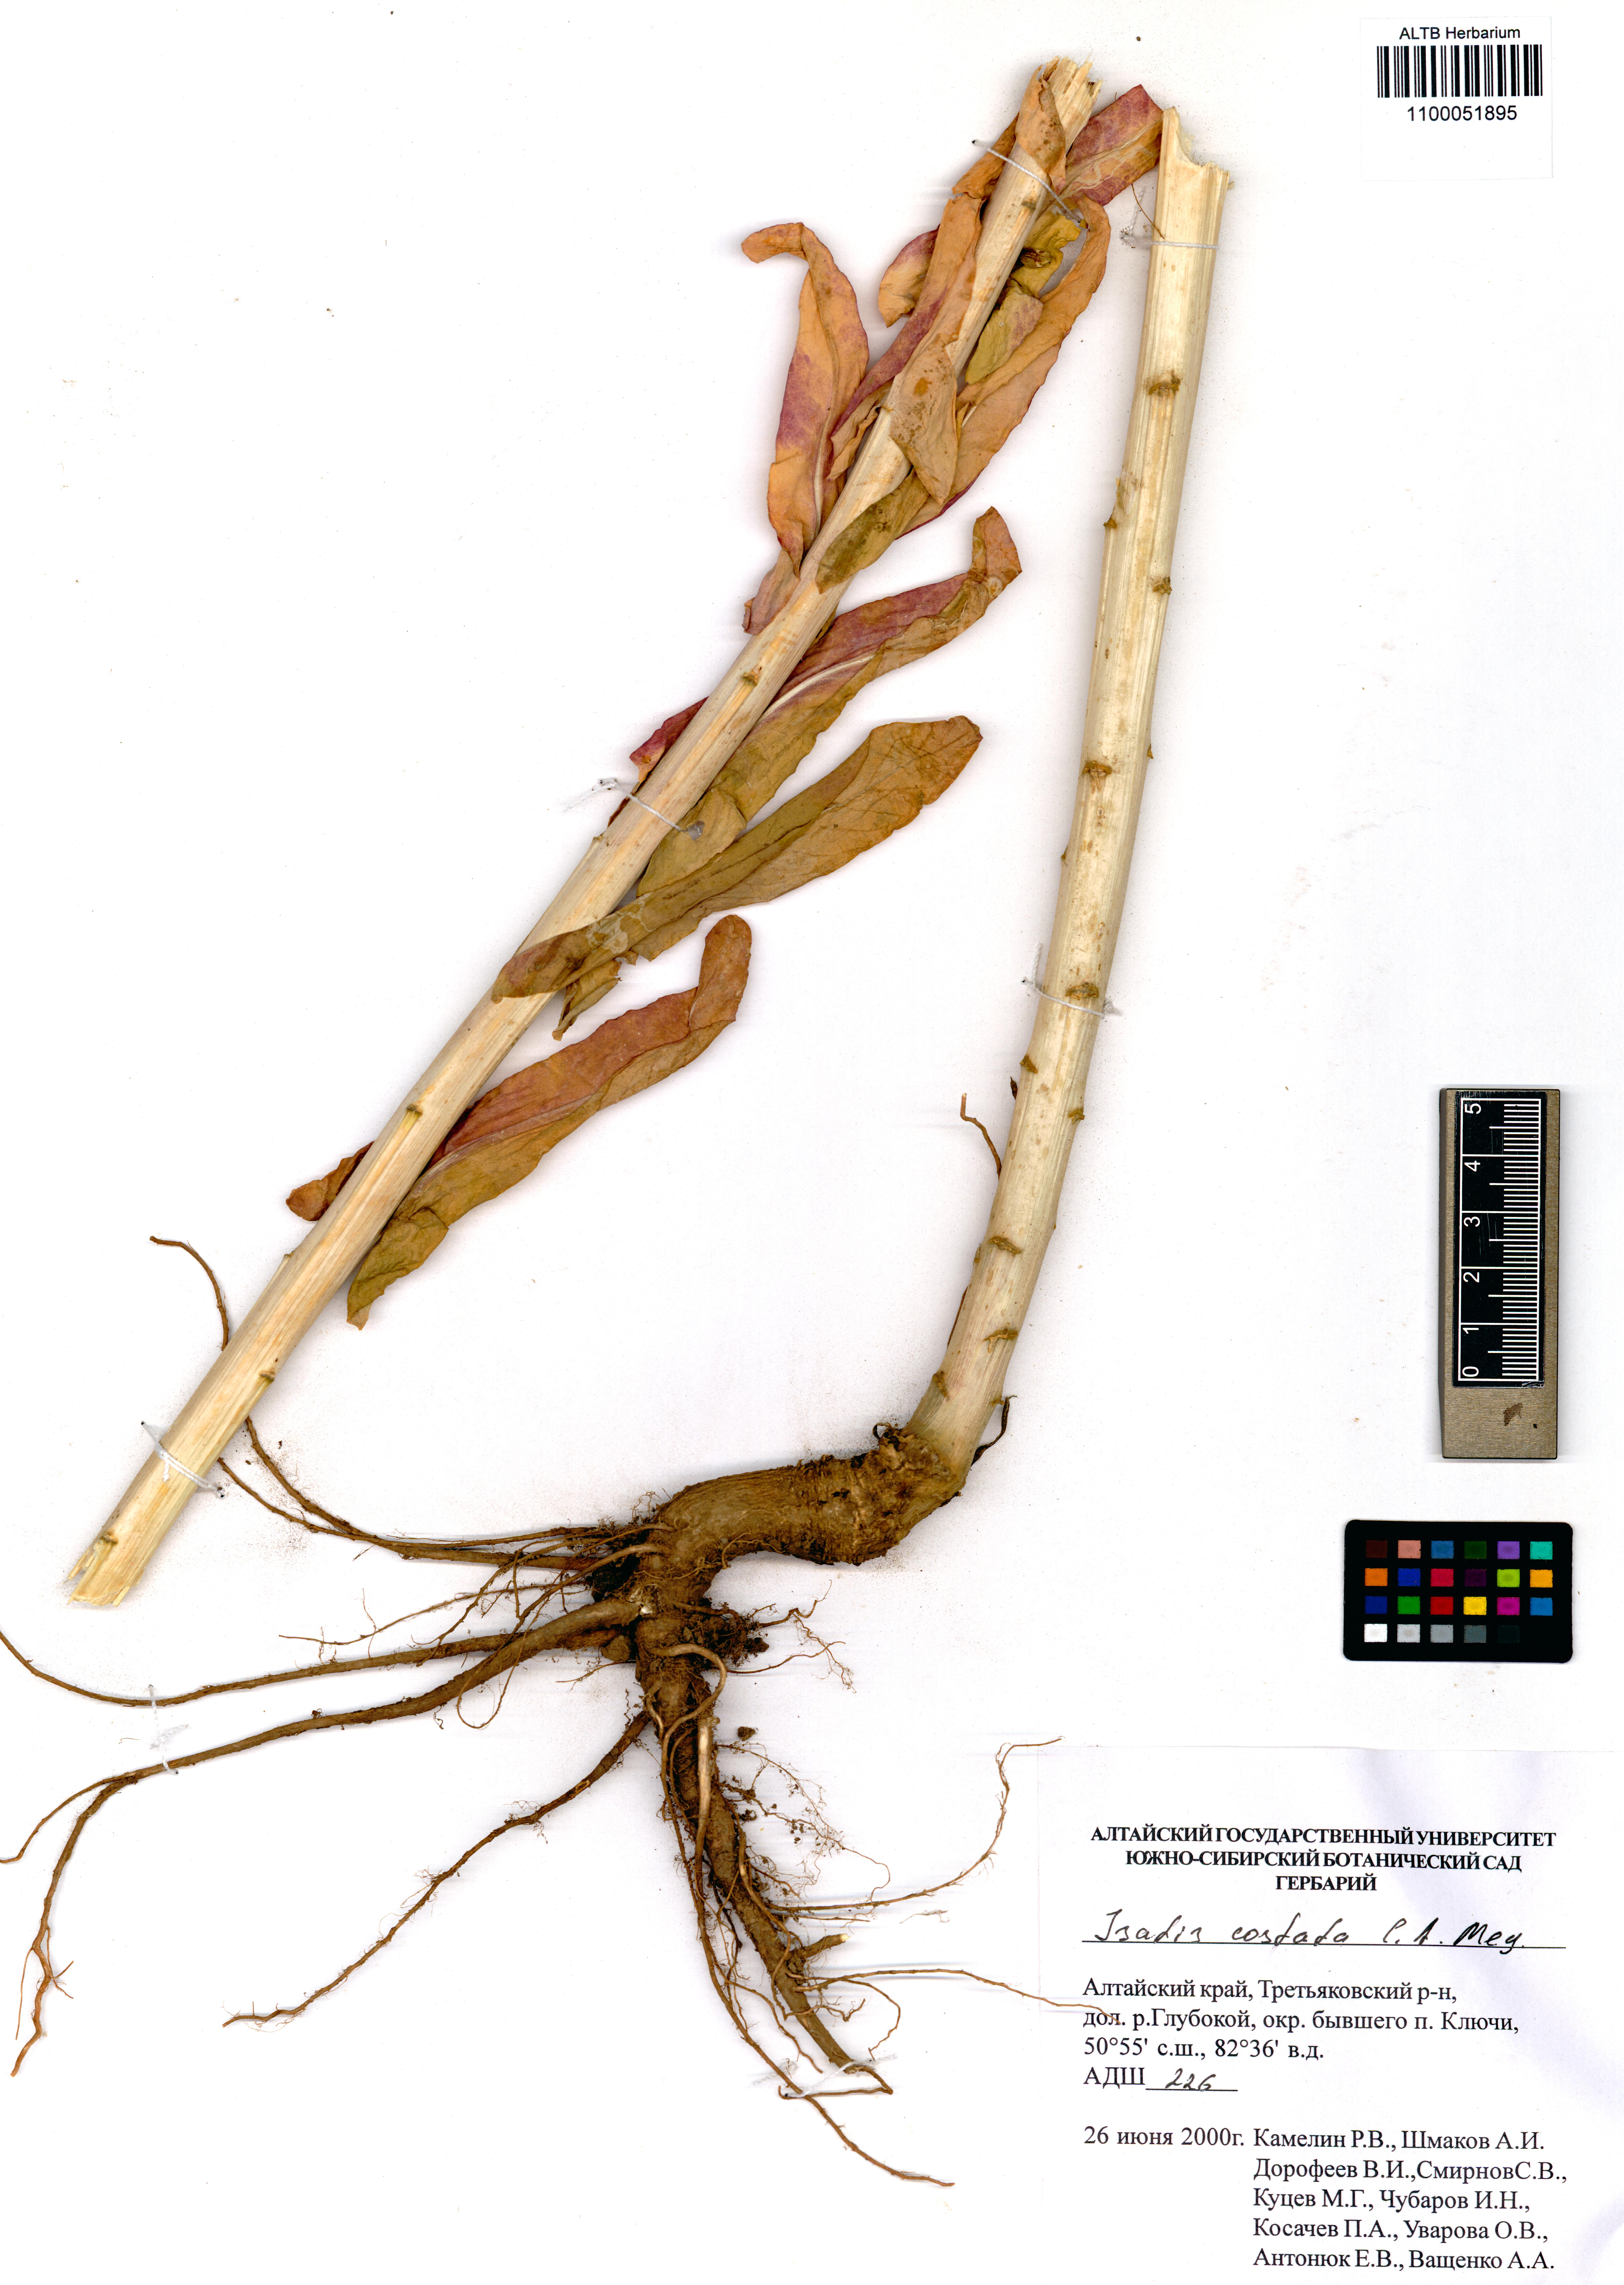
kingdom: Plantae
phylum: Tracheophyta
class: Magnoliopsida
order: Brassicales
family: Brassicaceae
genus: Isatis
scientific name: Isatis costata
